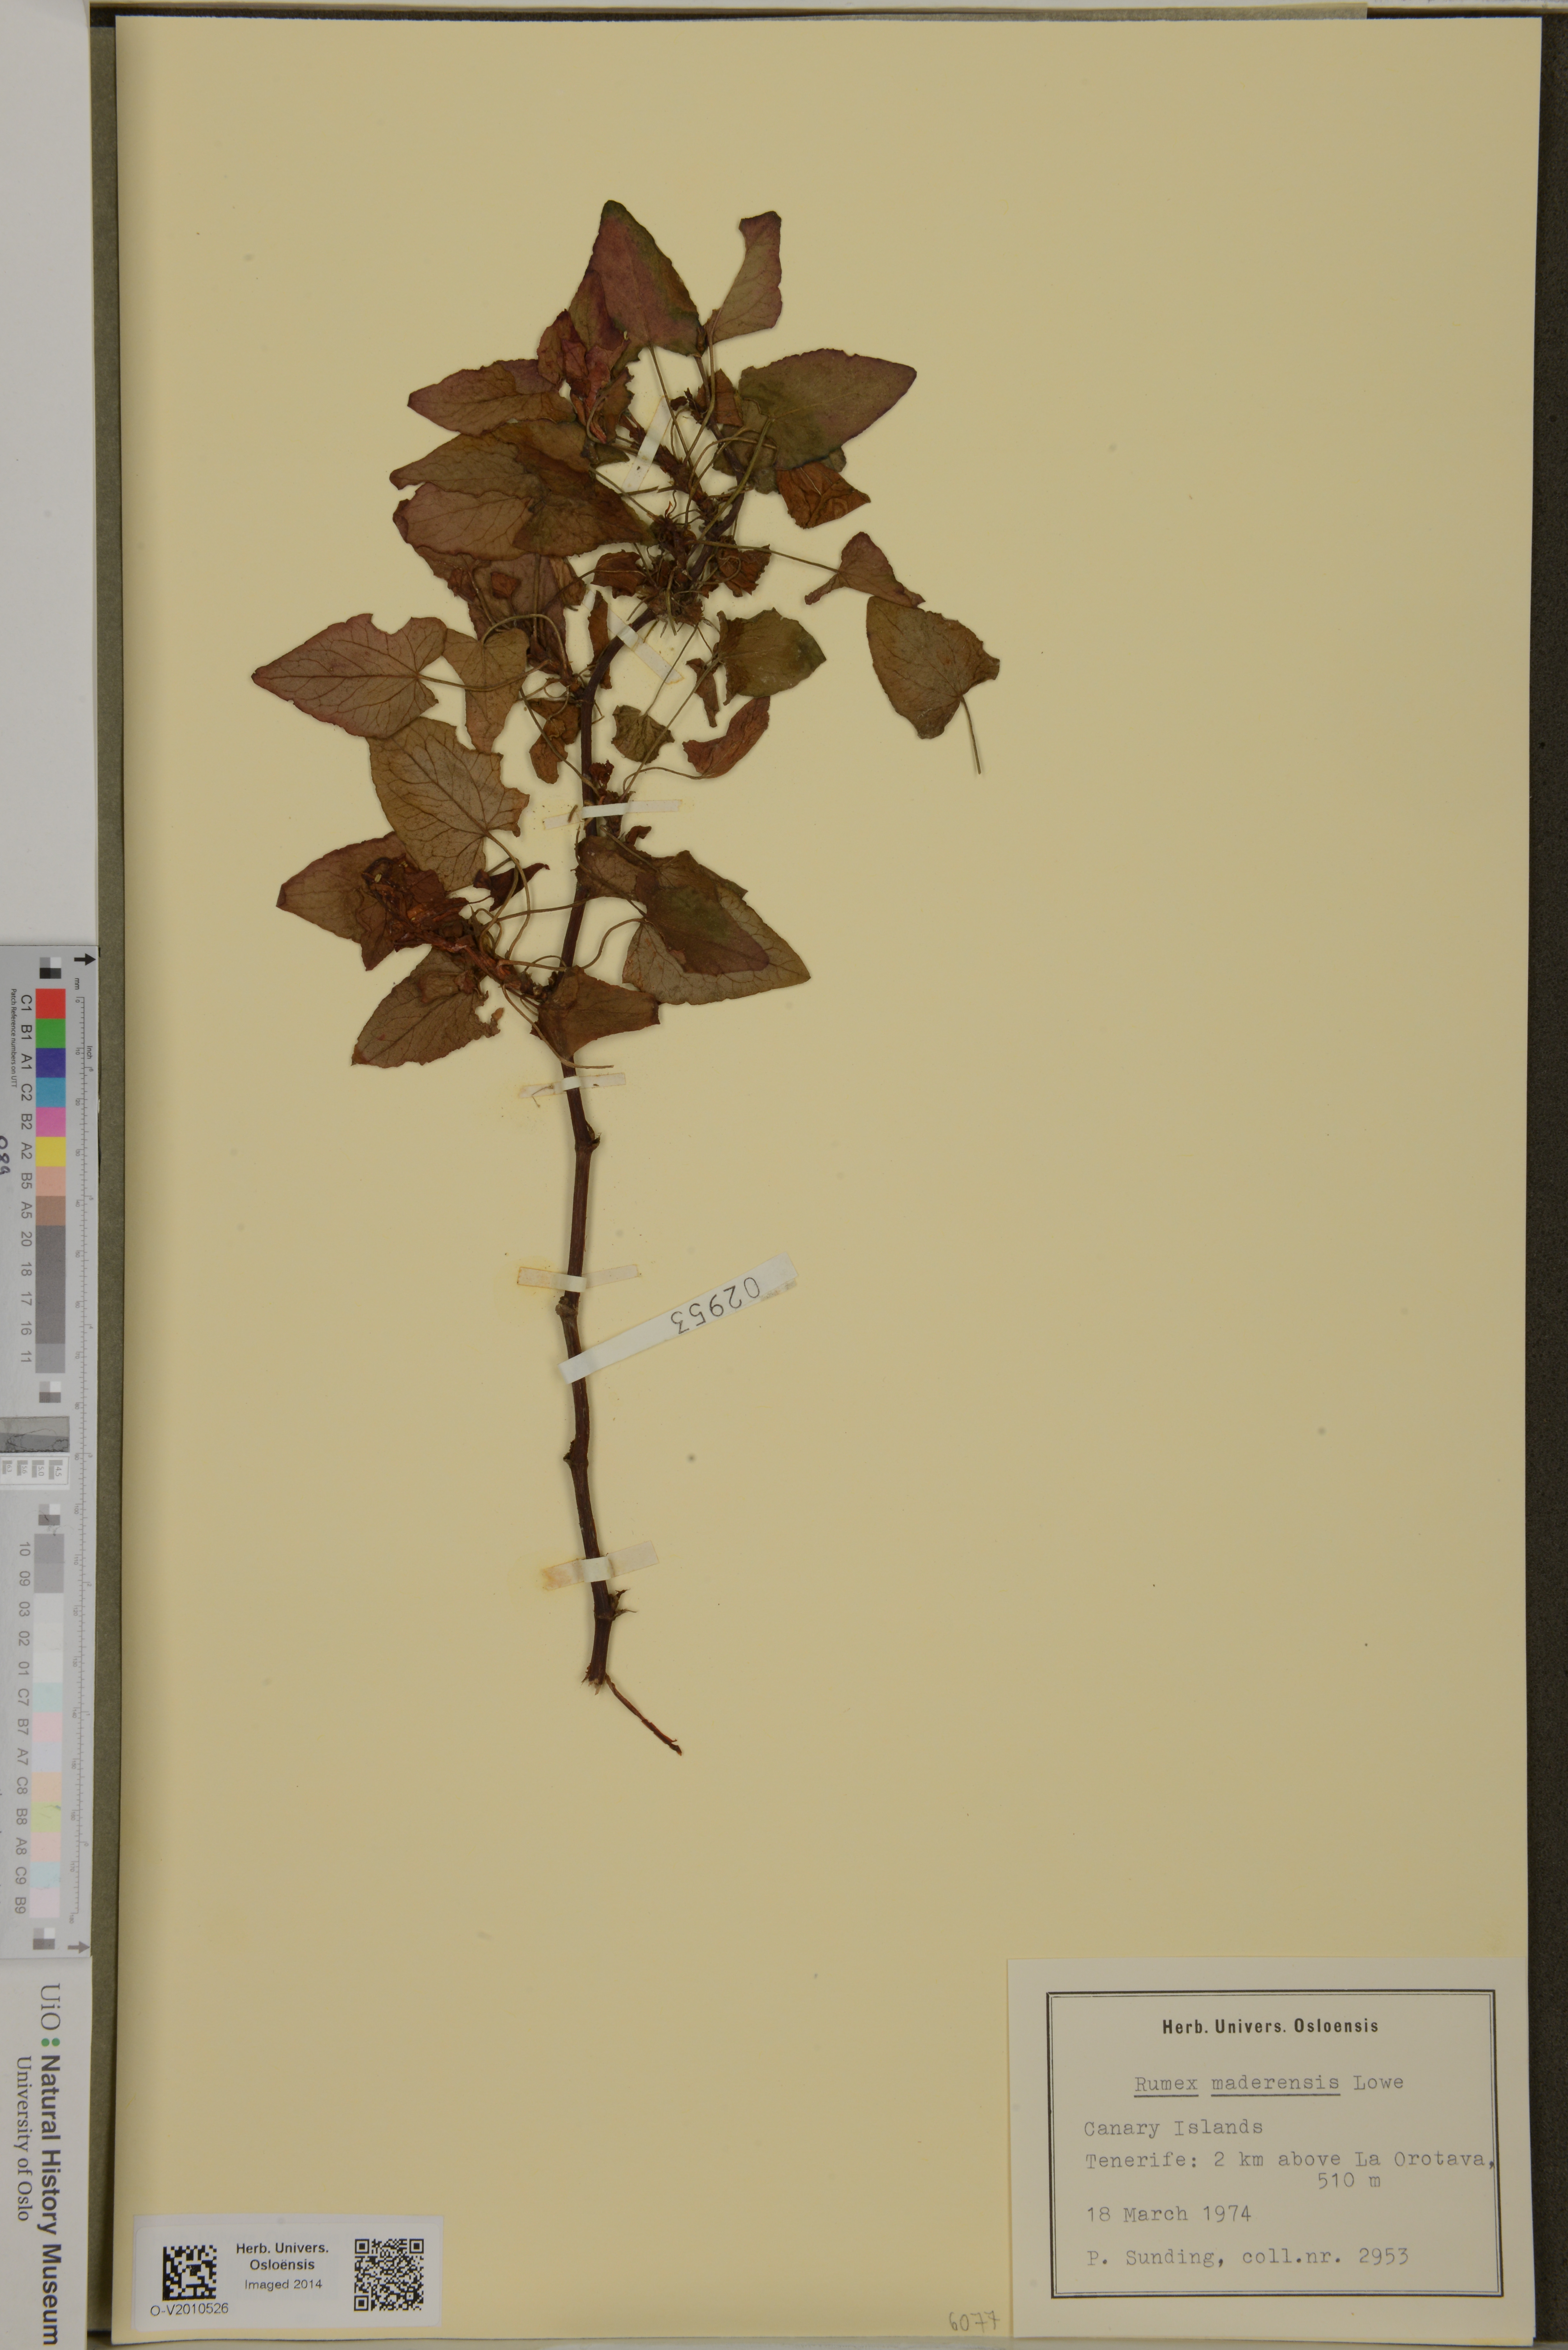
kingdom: Plantae
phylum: Tracheophyta
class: Magnoliopsida
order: Caryophyllales
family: Polygonaceae
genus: Rumex
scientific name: Rumex maderensis
